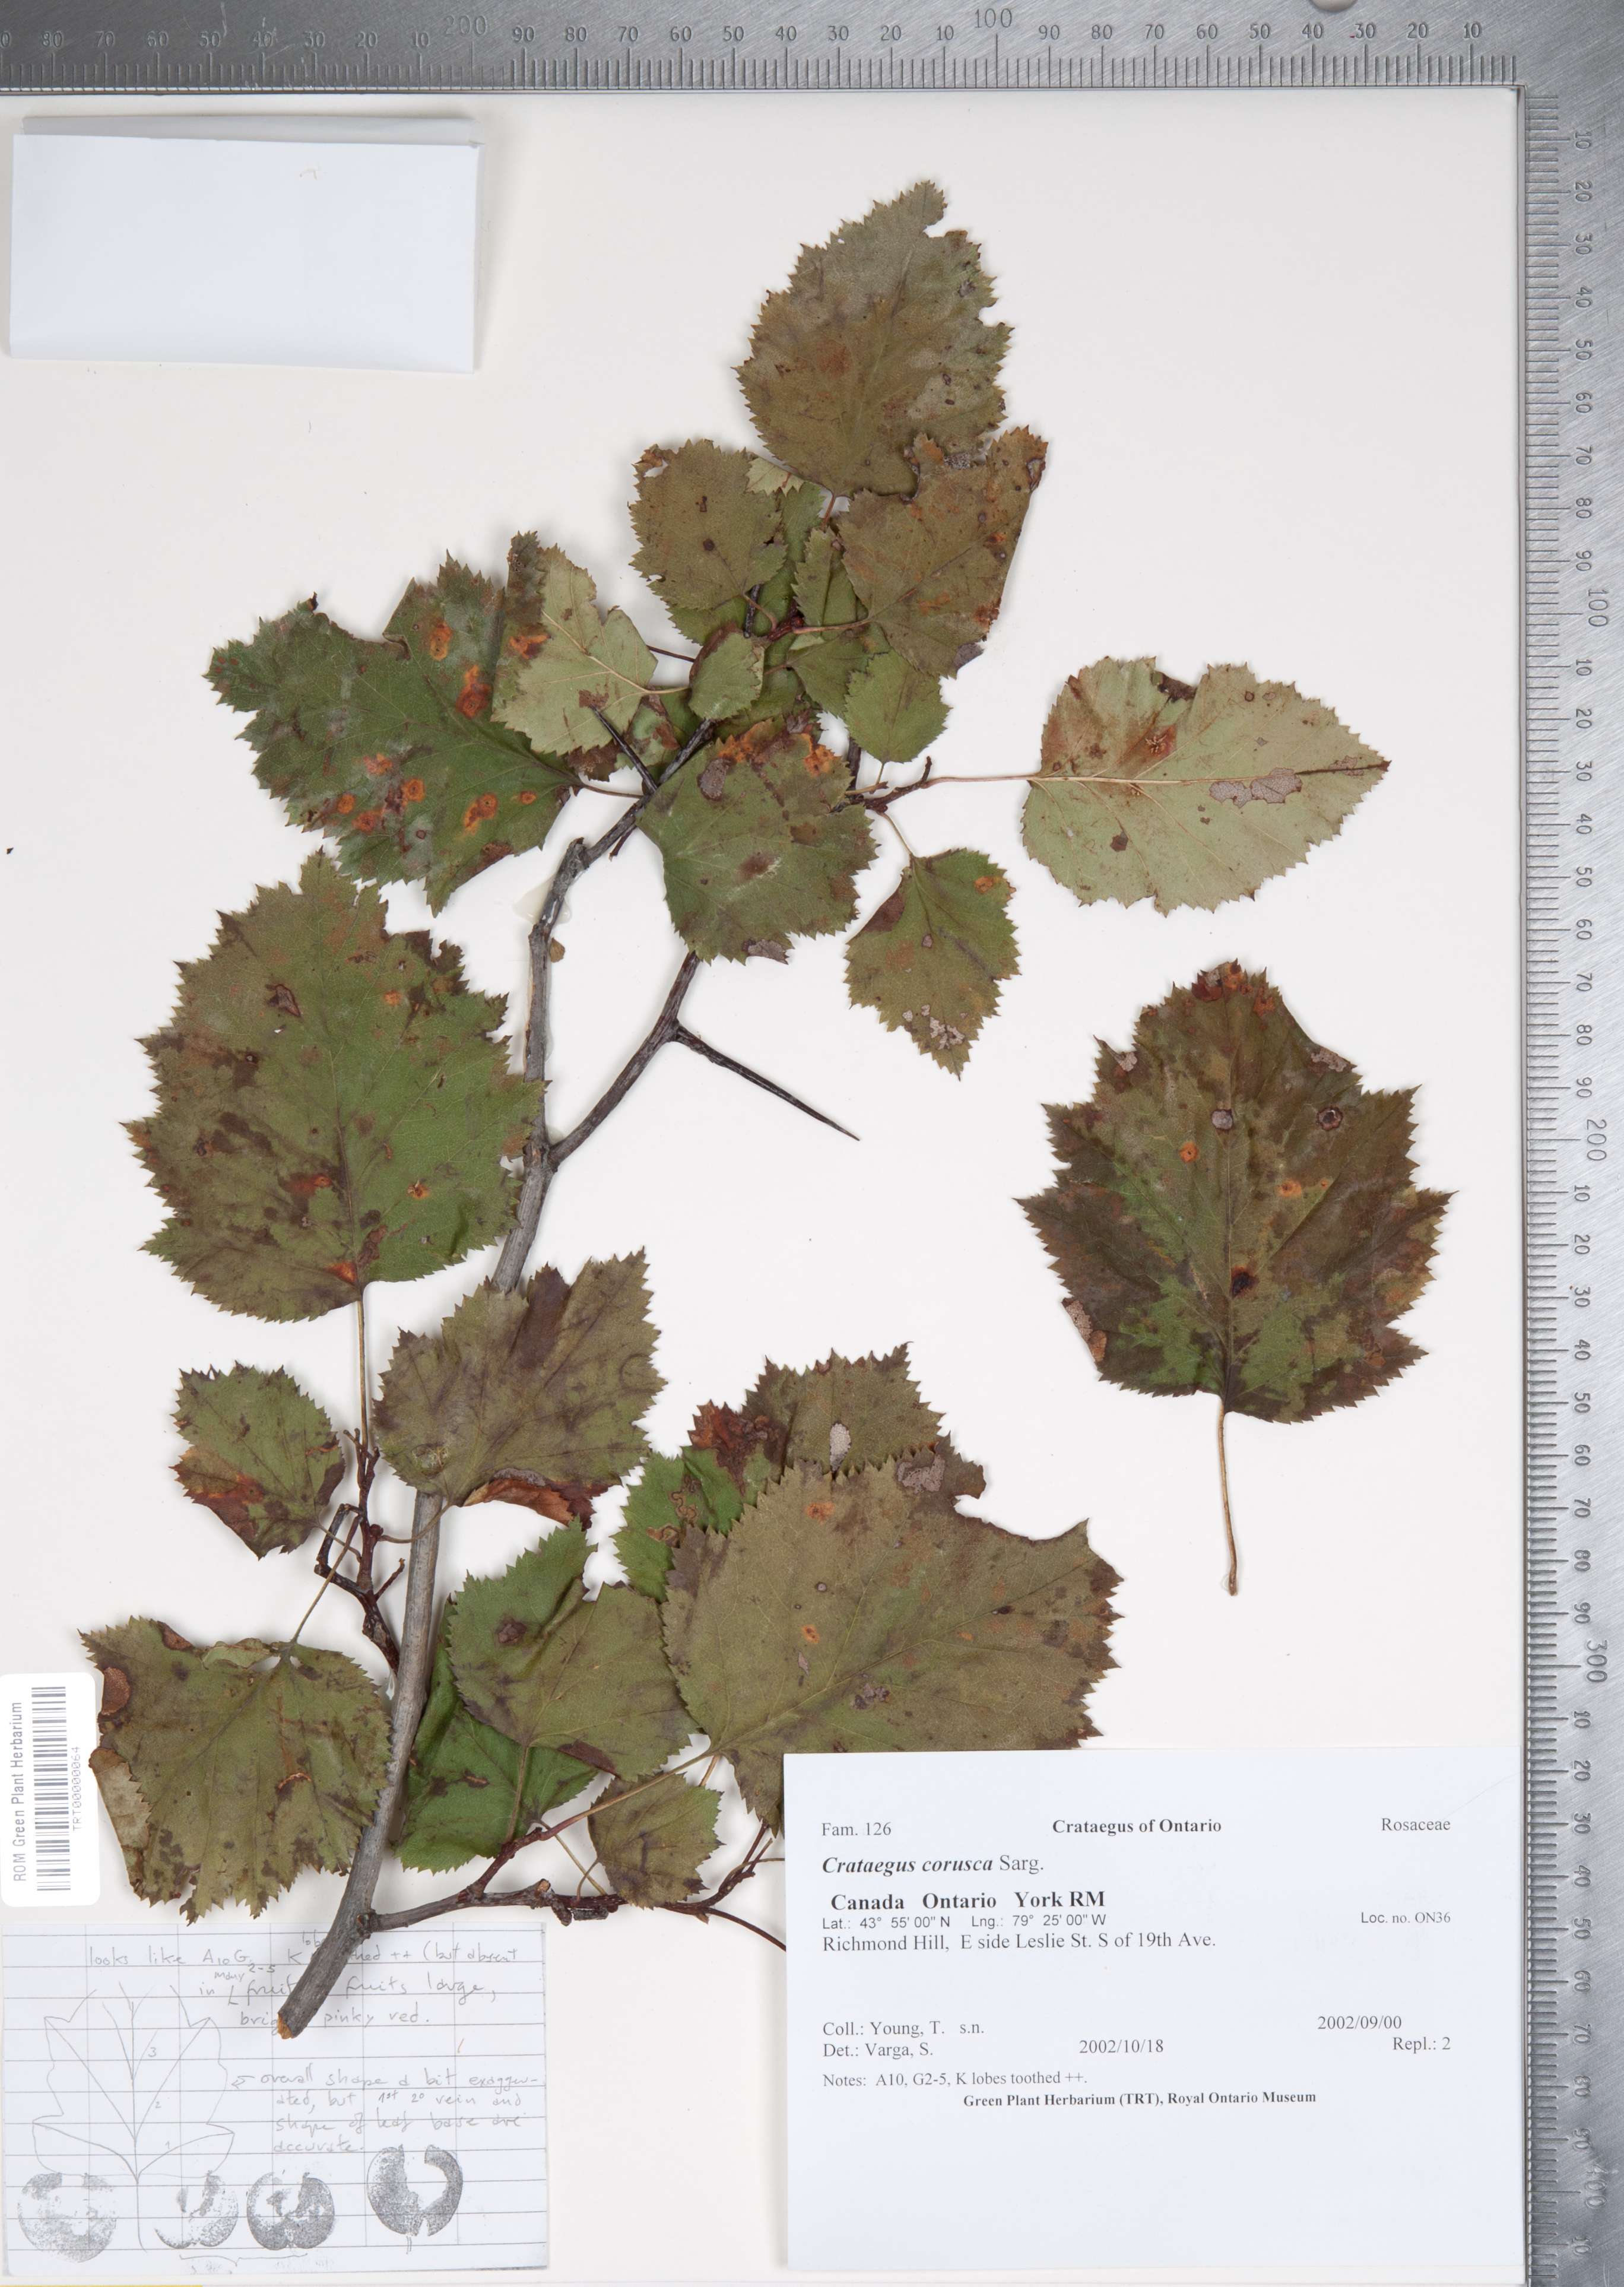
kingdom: Plantae
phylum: Tracheophyta
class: Magnoliopsida
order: Rosales
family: Rosaceae
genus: Crataegus
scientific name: Crataegus corusca
